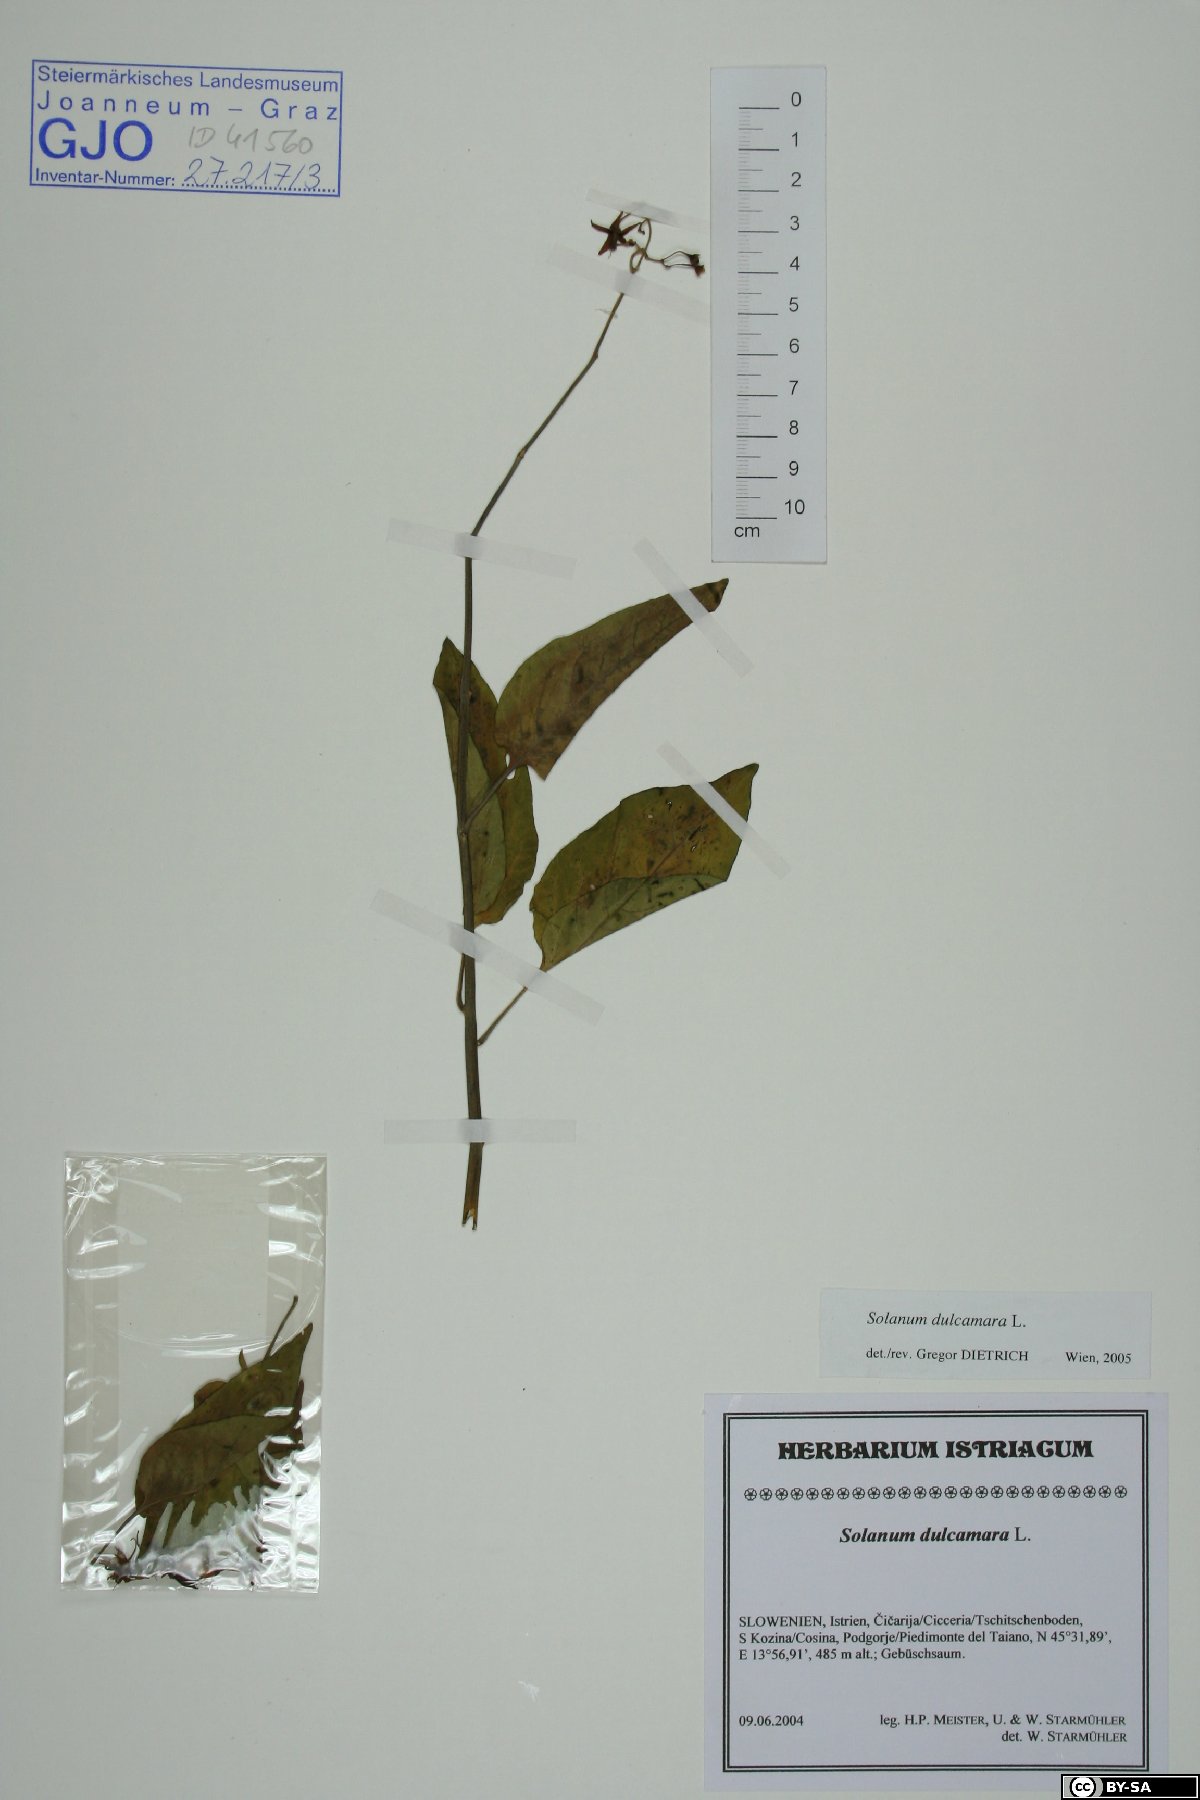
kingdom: Plantae
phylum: Tracheophyta
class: Magnoliopsida
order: Solanales
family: Solanaceae
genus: Solanum
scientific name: Solanum dulcamara
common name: Climbing nightshade
